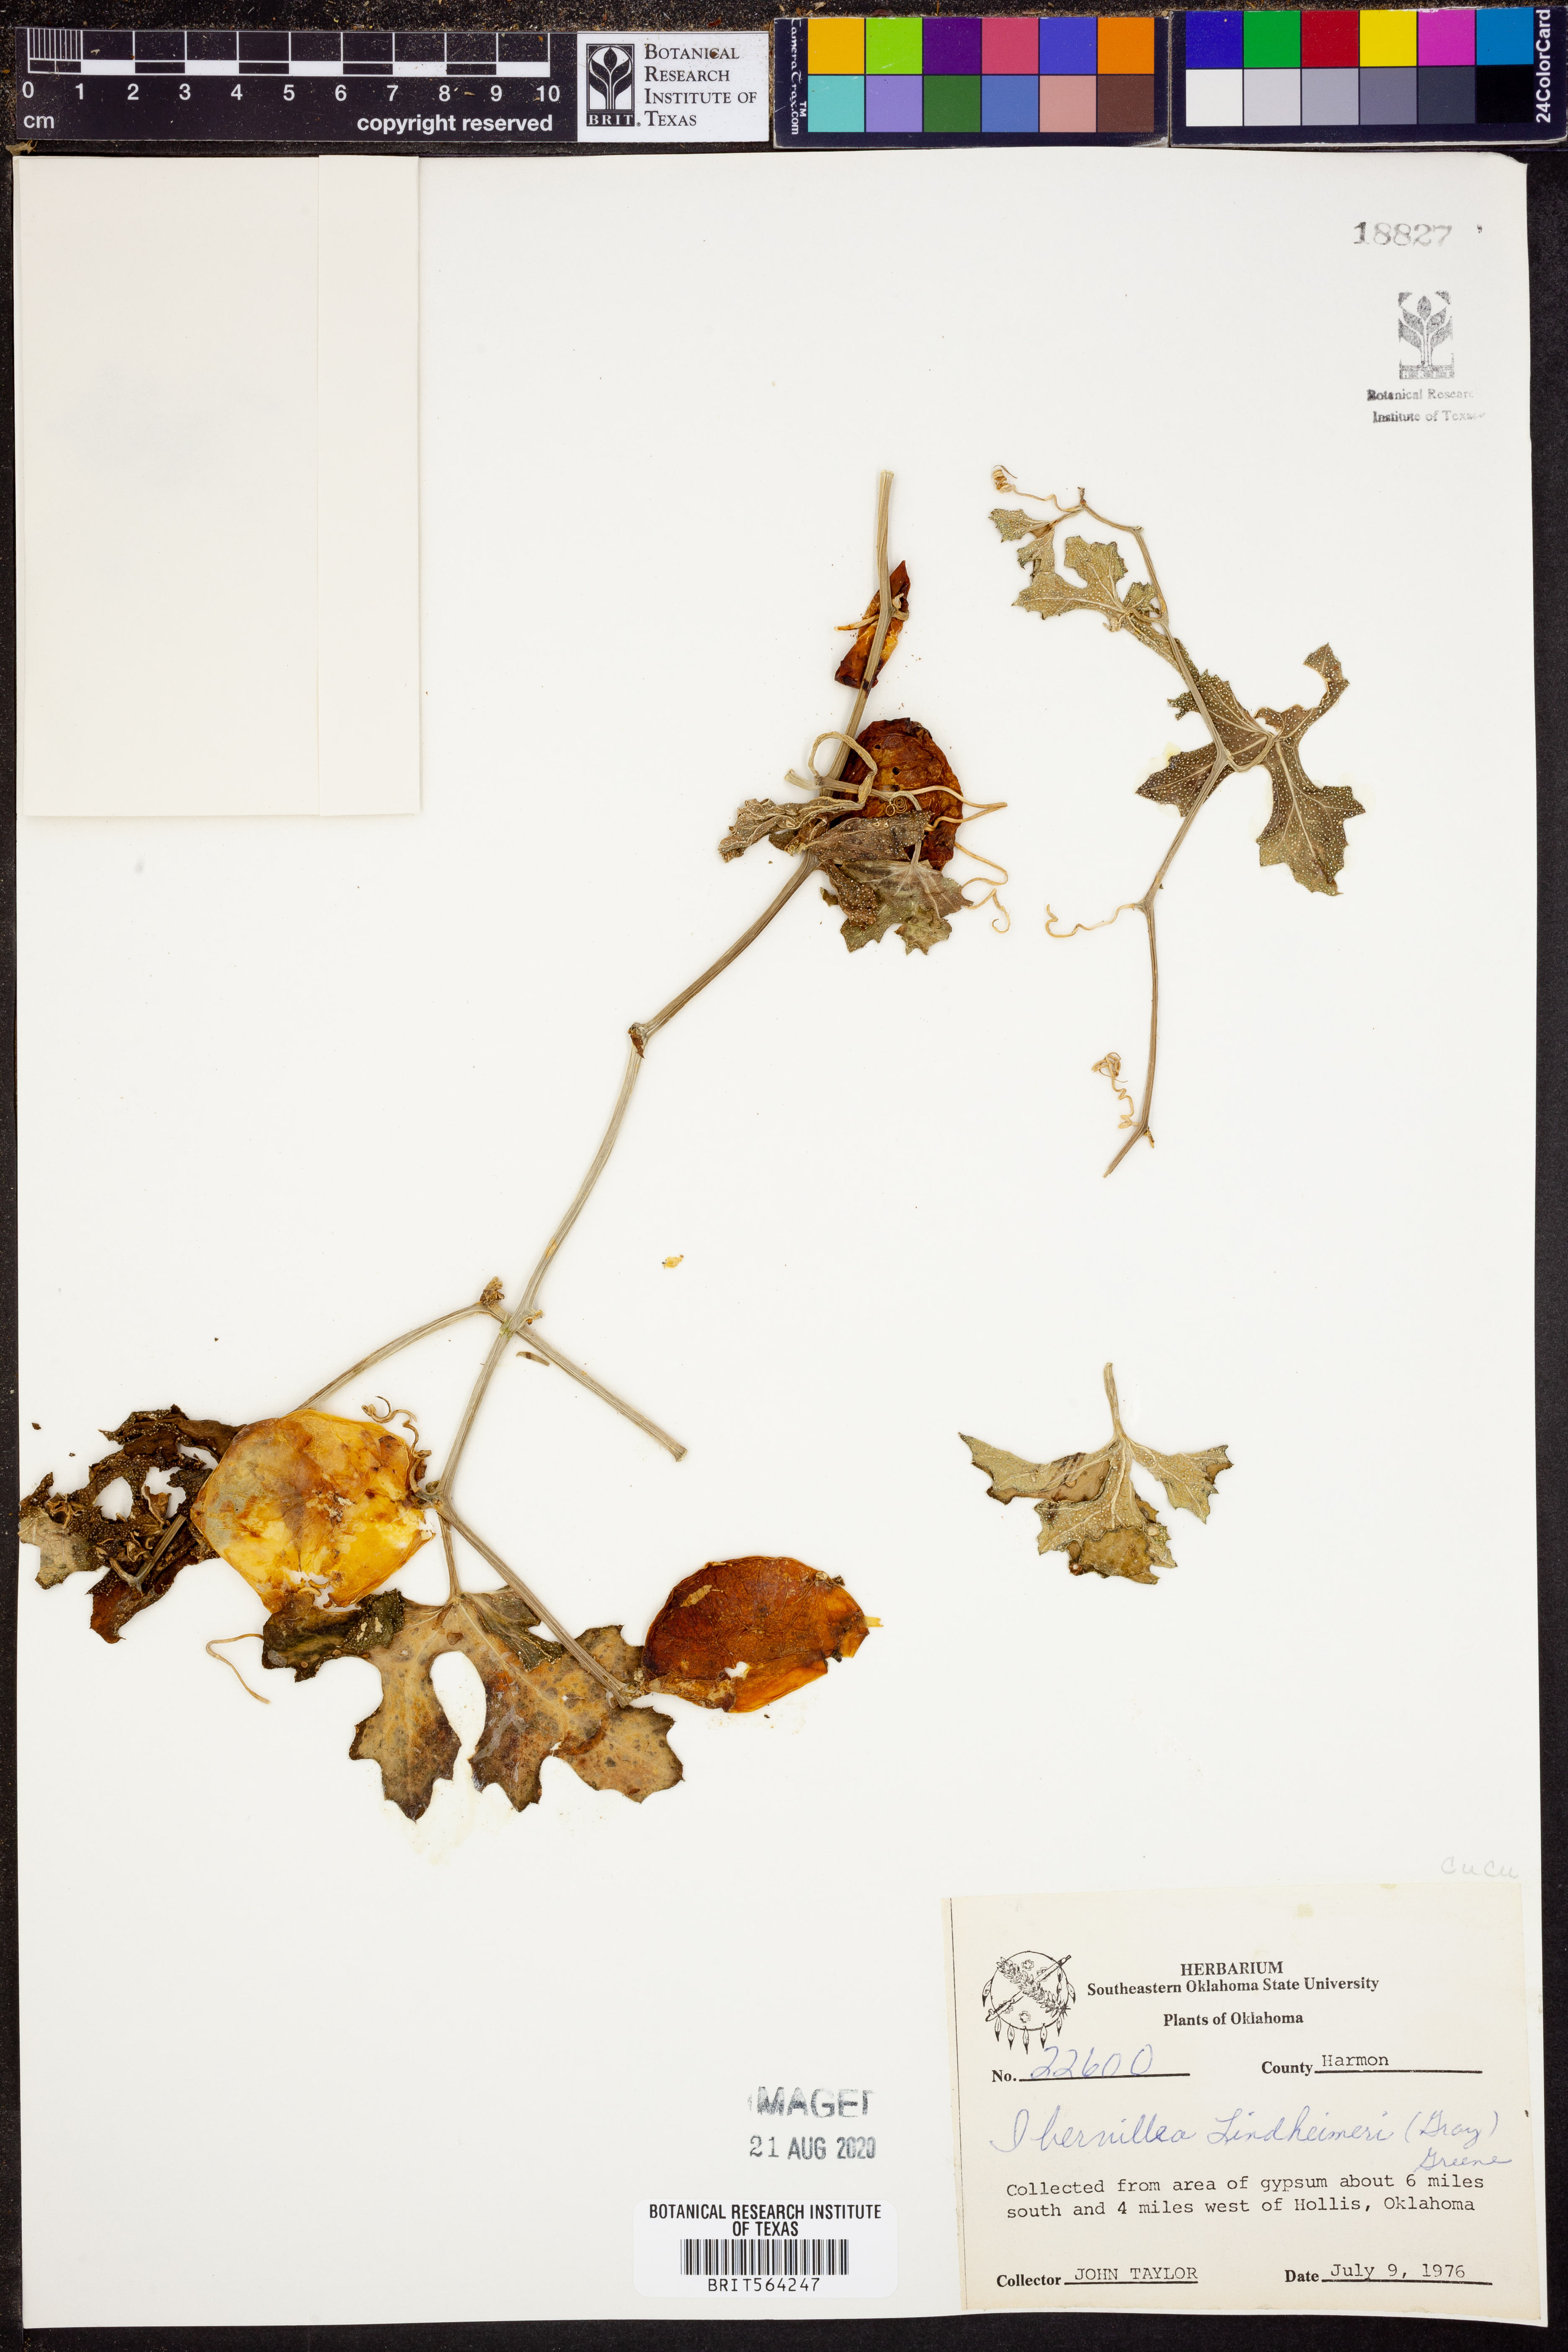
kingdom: Plantae
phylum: Tracheophyta
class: Magnoliopsida
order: Cucurbitales
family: Cucurbitaceae
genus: Ibervillea
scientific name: Ibervillea lindheimeri
